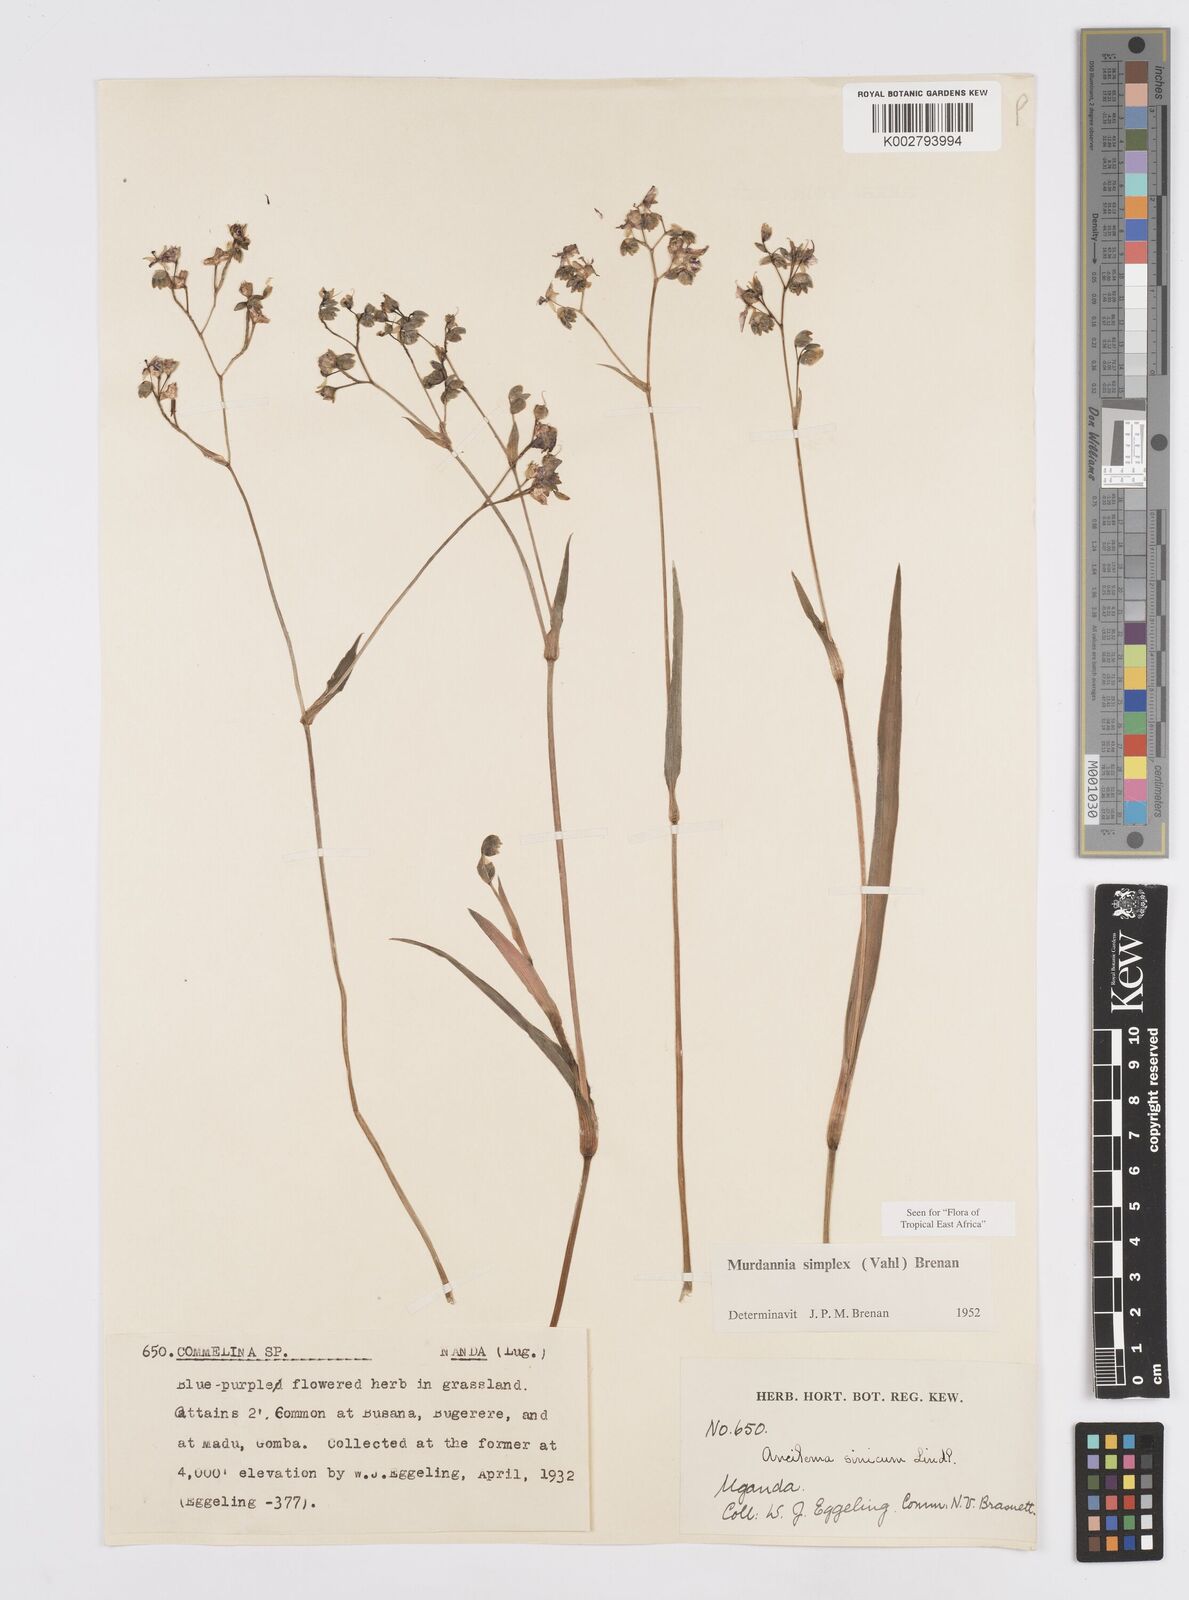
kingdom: Plantae
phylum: Tracheophyta
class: Liliopsida
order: Commelinales
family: Commelinaceae
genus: Murdannia
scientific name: Murdannia simplex
